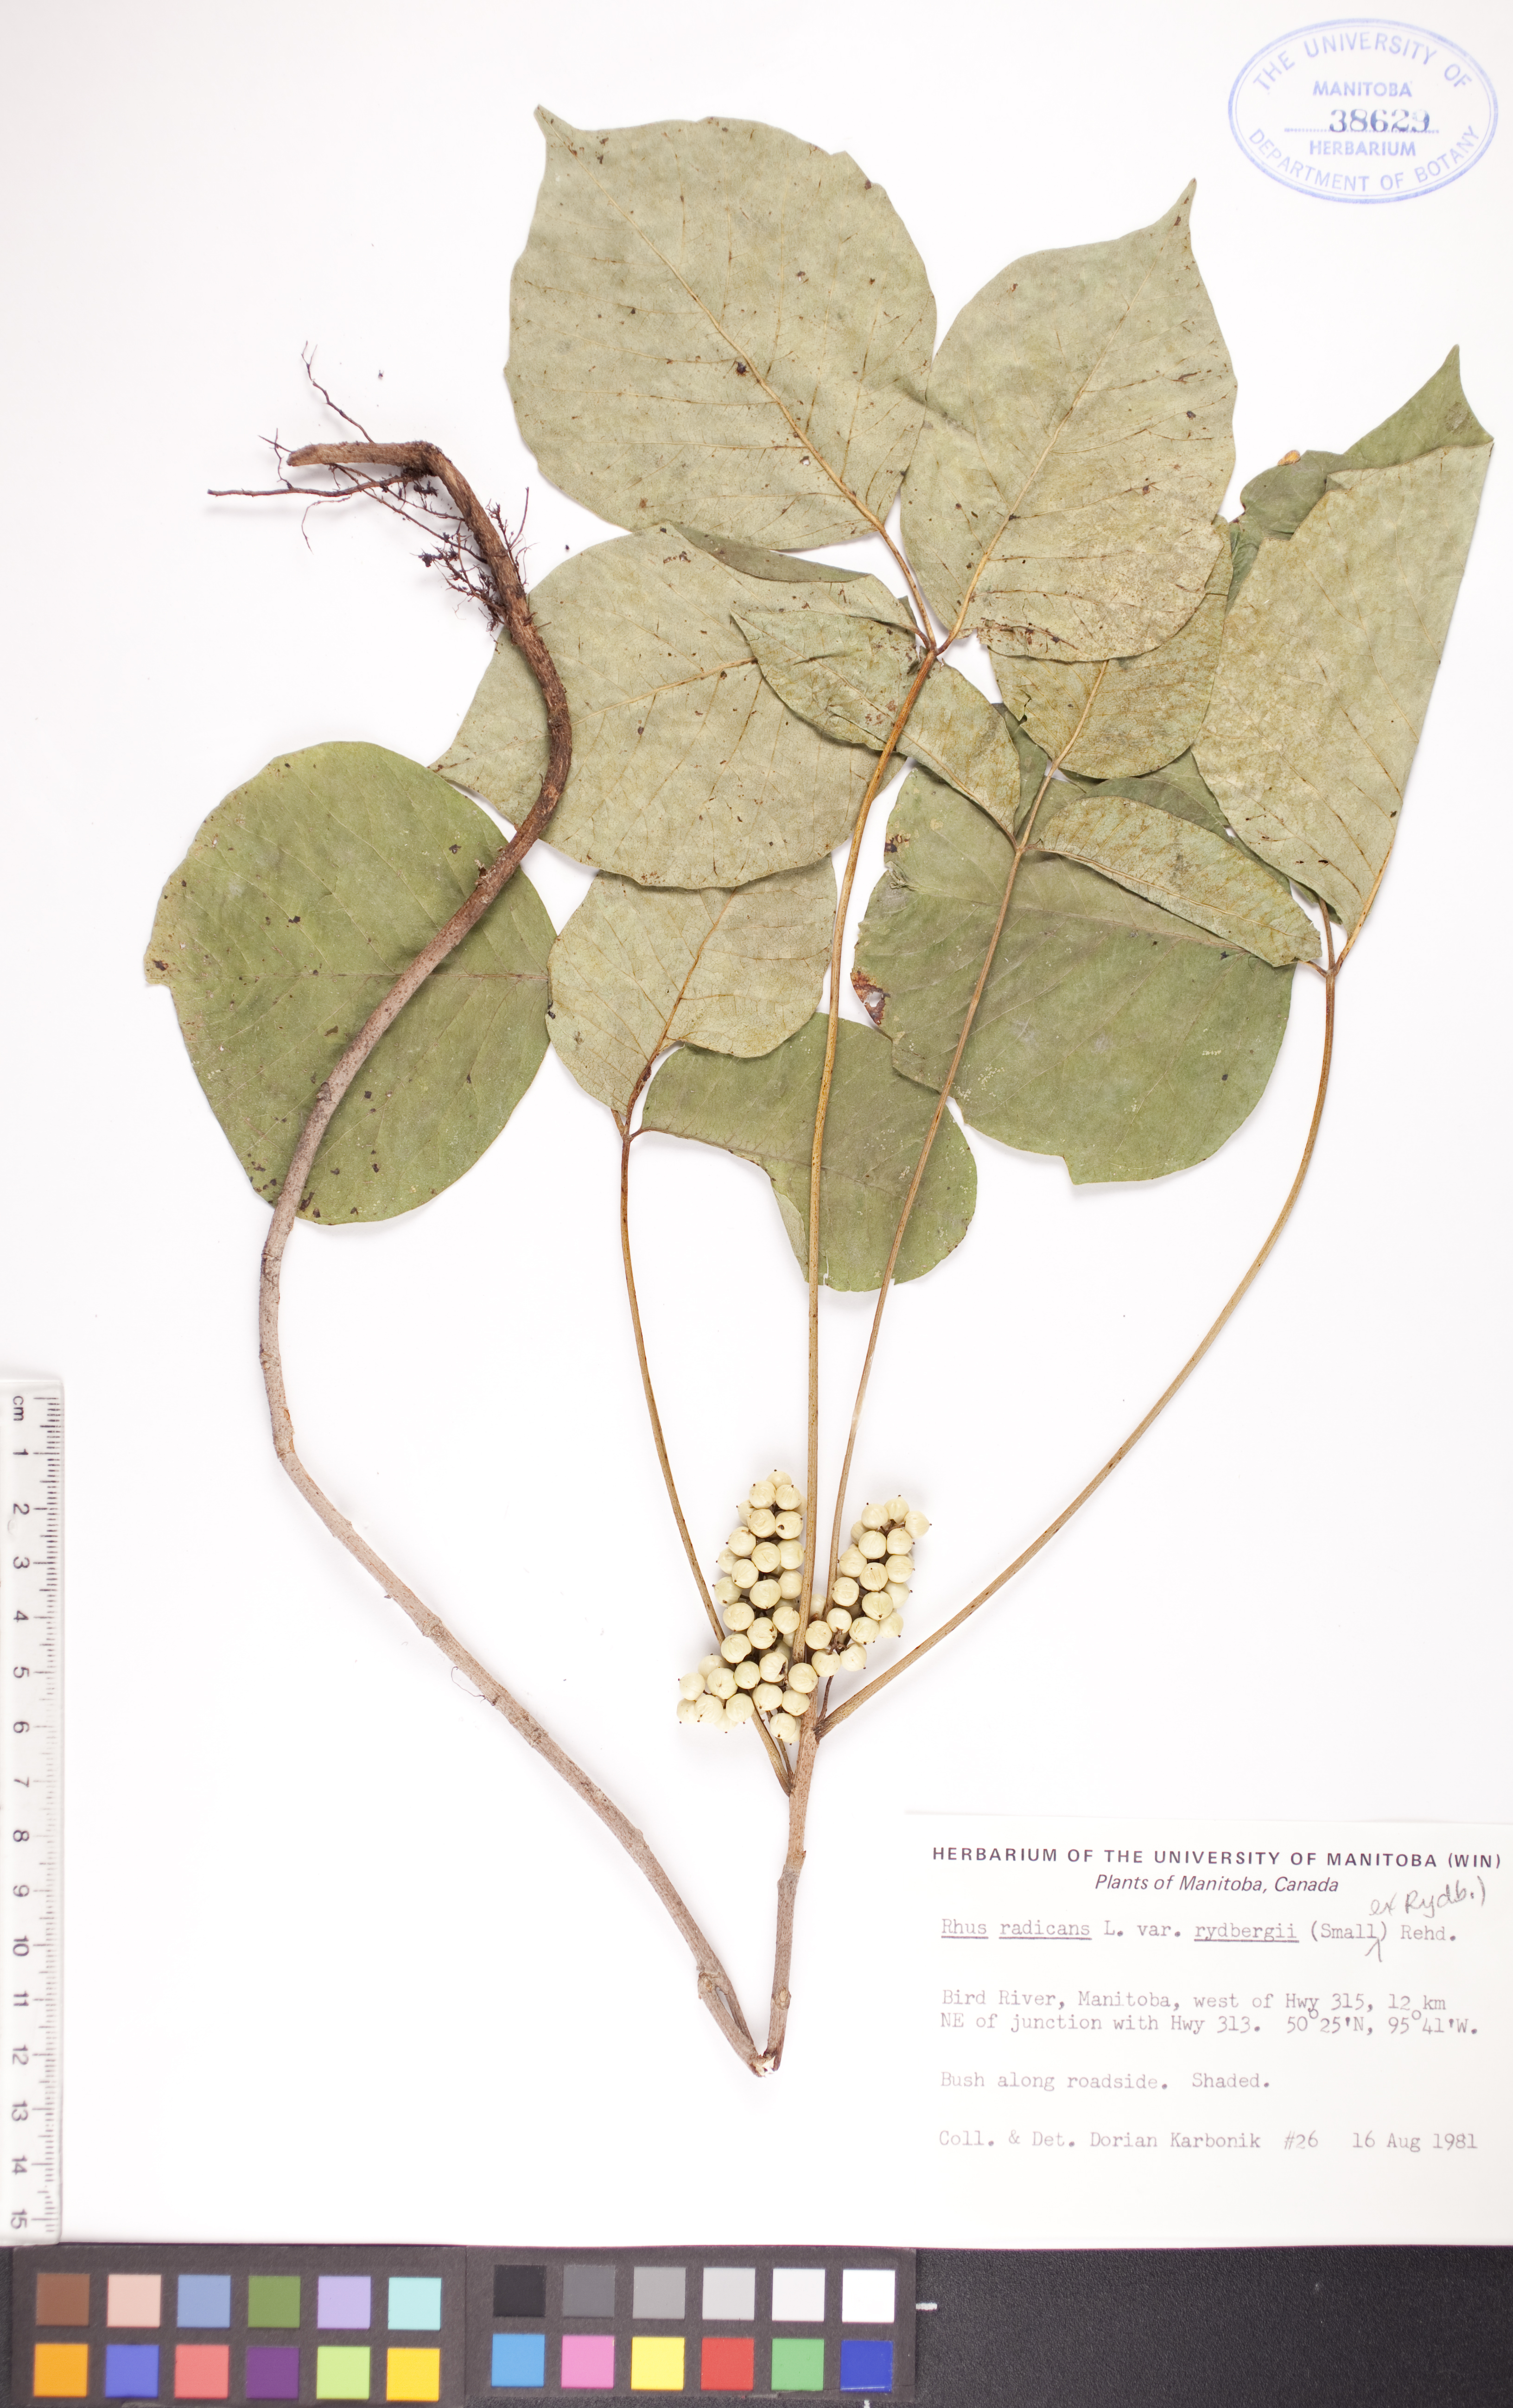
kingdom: Plantae
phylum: Tracheophyta
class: Magnoliopsida
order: Sapindales
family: Anacardiaceae
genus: Toxicodendron
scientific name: Toxicodendron rydbergii
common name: Rydberg's poison-ivy
